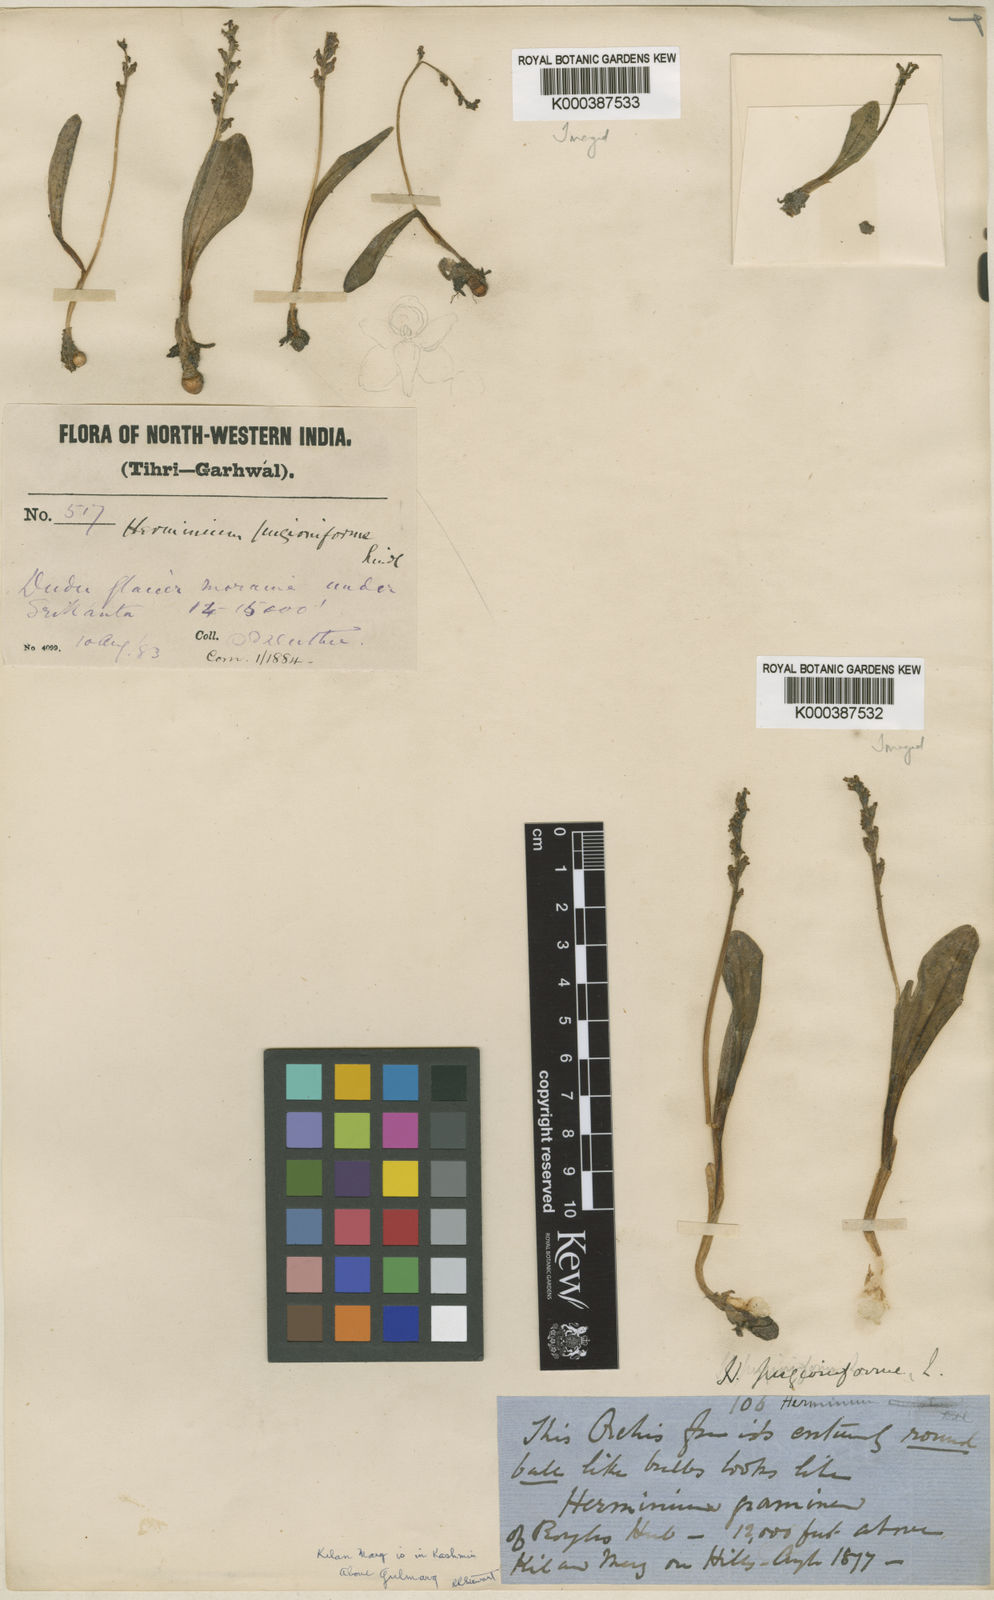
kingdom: Plantae
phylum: Tracheophyta
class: Liliopsida
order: Asparagales
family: Orchidaceae
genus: Herminium
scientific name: Herminium pugioniforme
